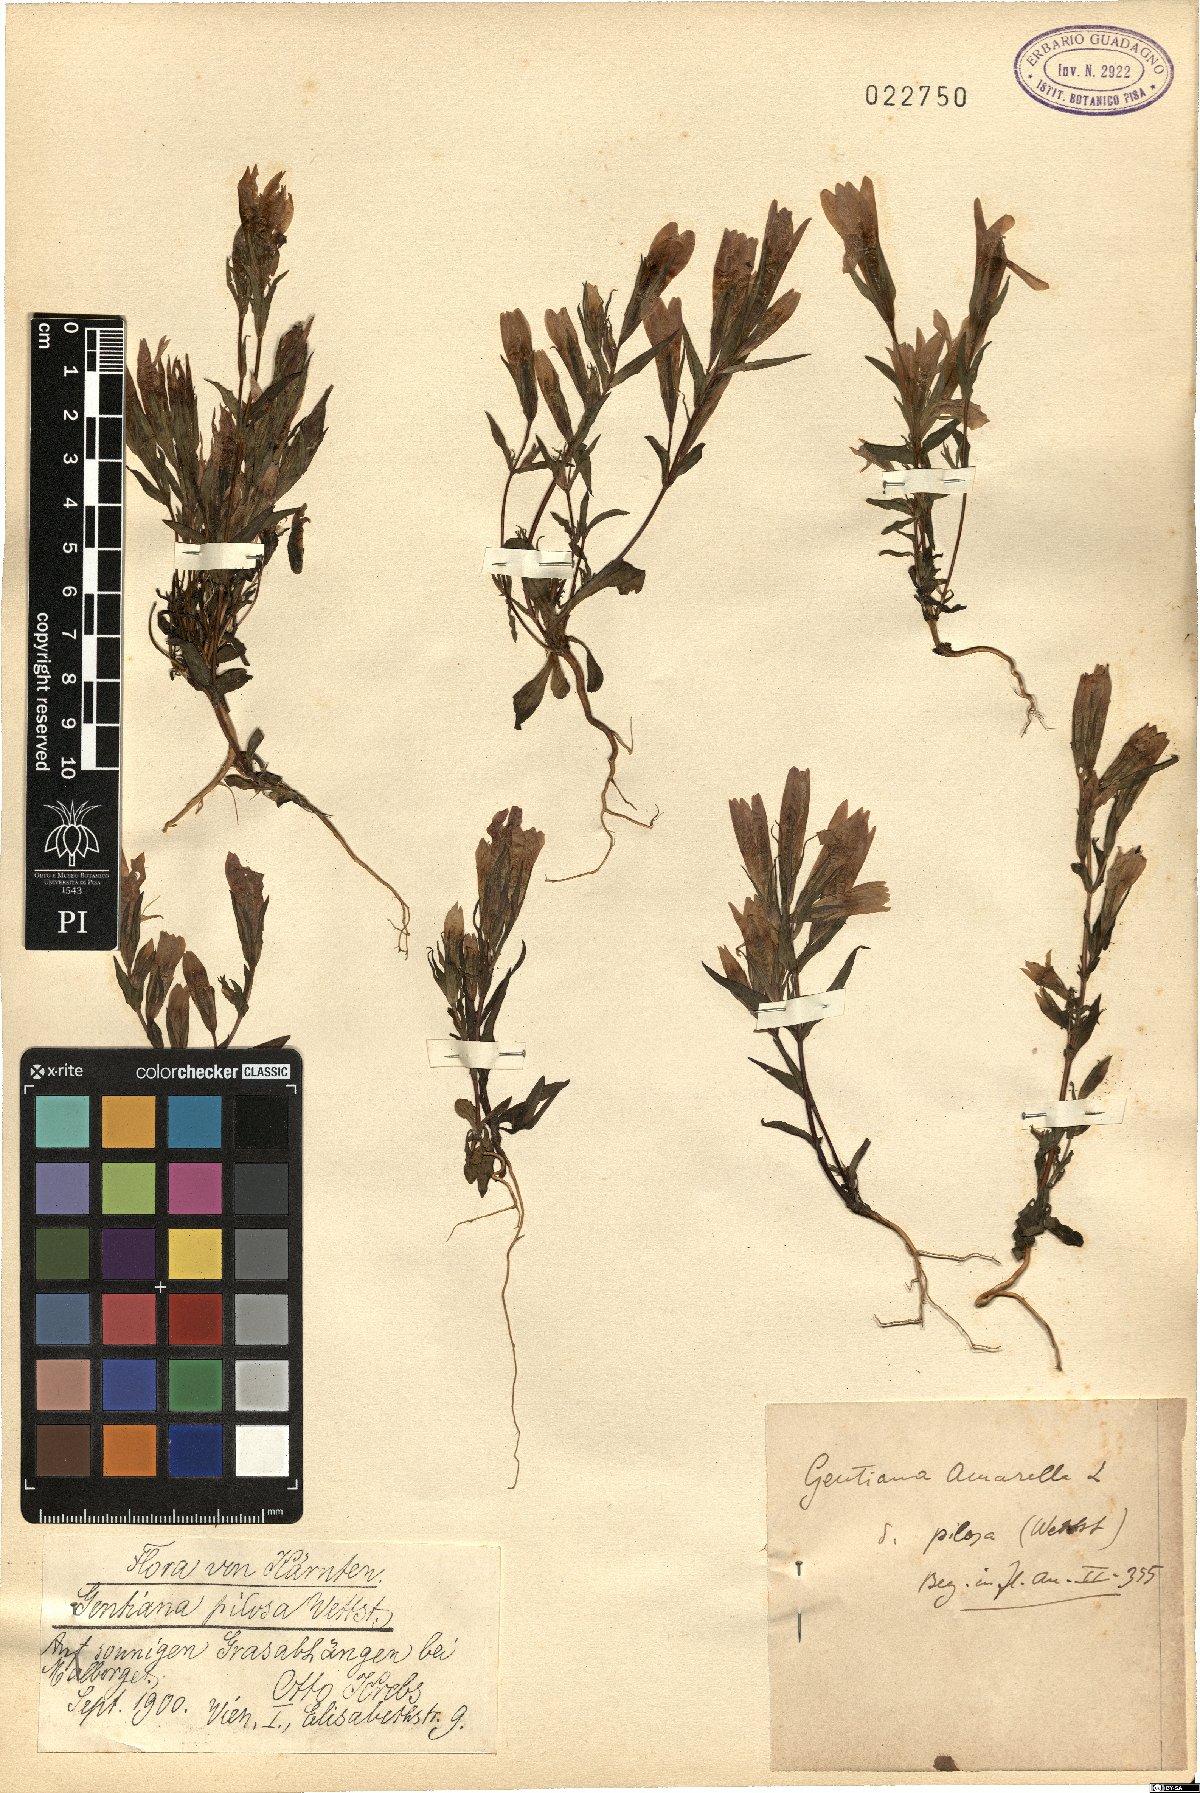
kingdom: Plantae
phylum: Tracheophyta
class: Magnoliopsida
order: Gentianales
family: Gentianaceae
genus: Gentianella
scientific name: Gentianella pilosa
